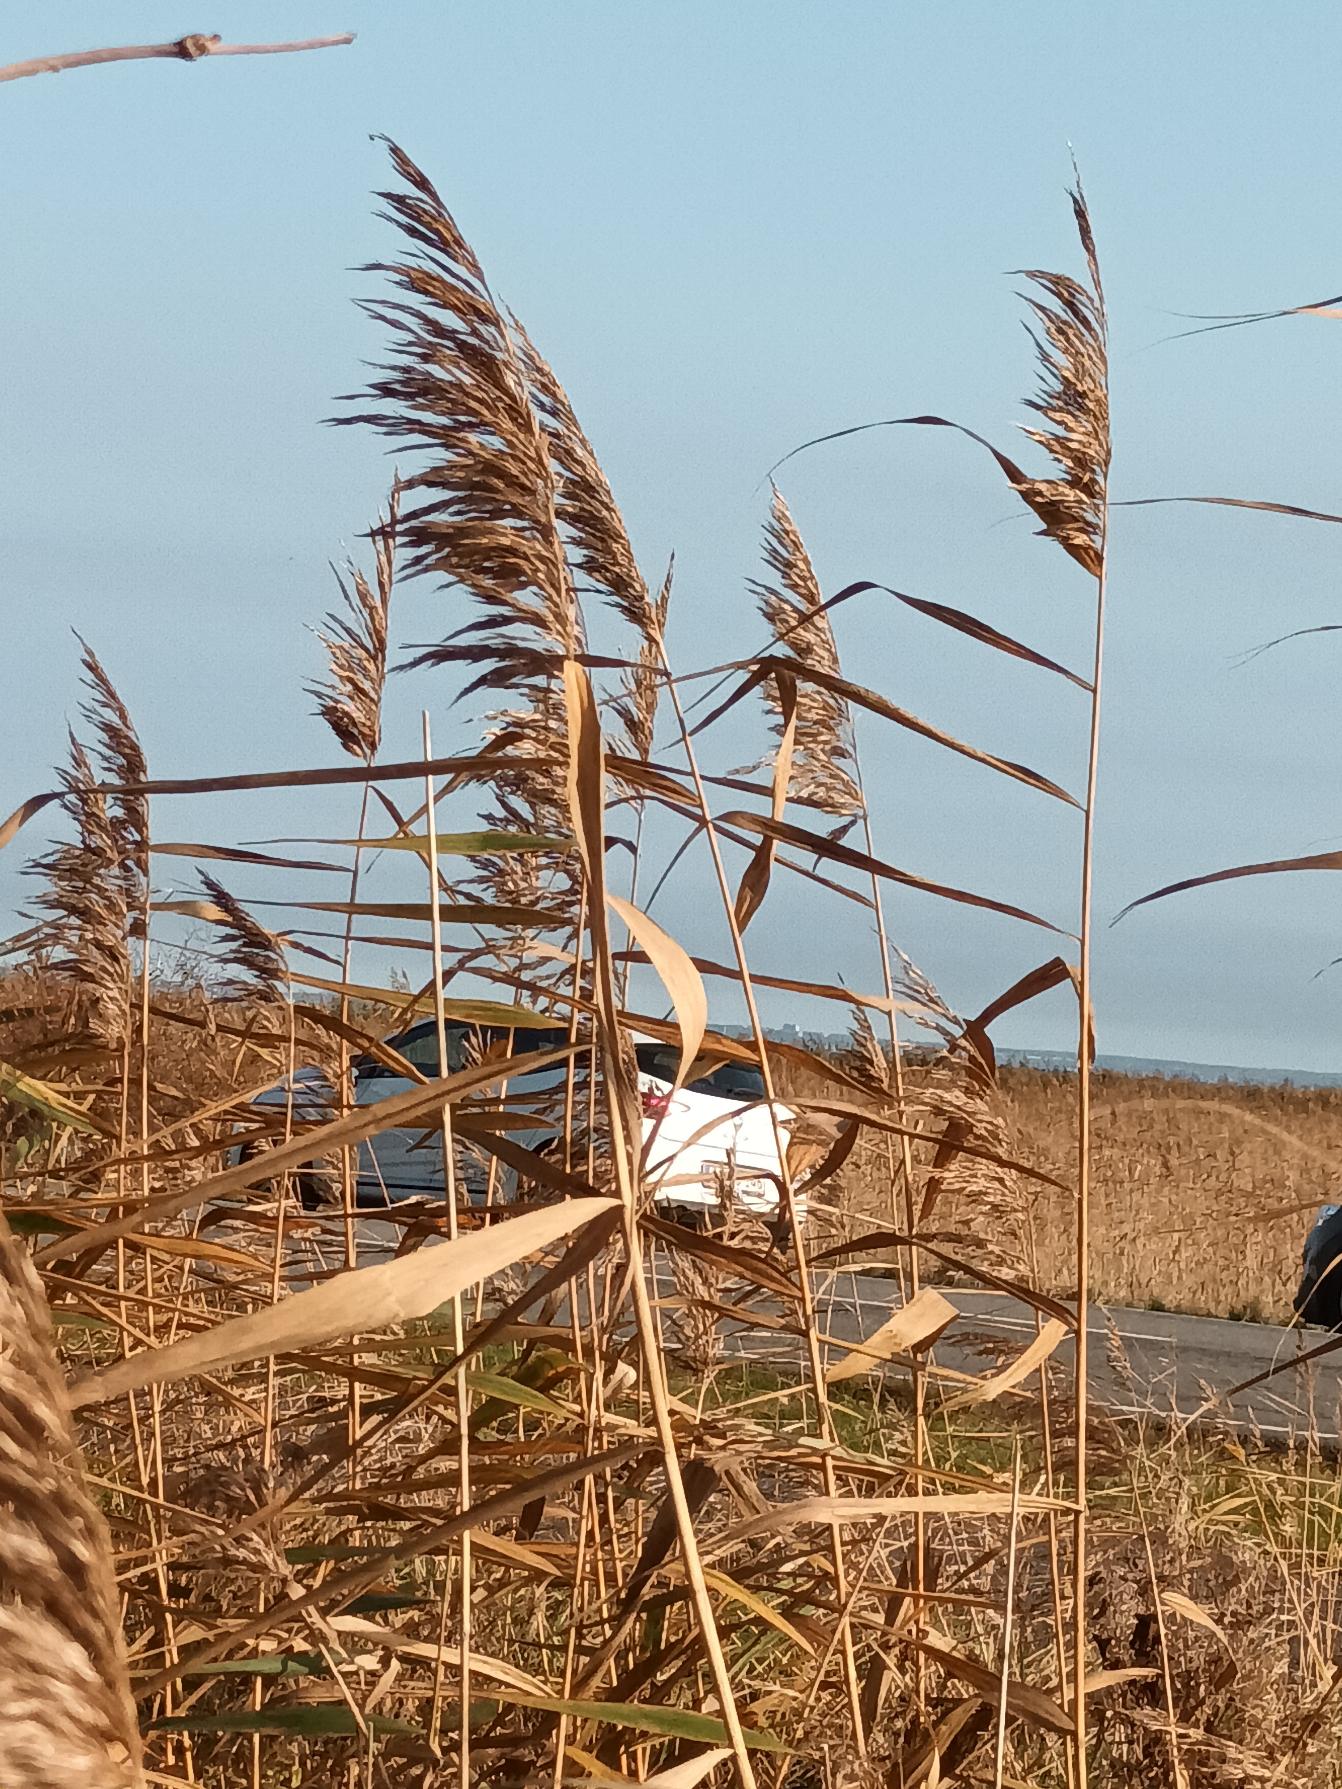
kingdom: Plantae
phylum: Tracheophyta
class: Liliopsida
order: Poales
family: Poaceae
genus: Phragmites
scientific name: Phragmites australis
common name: Tagrør
